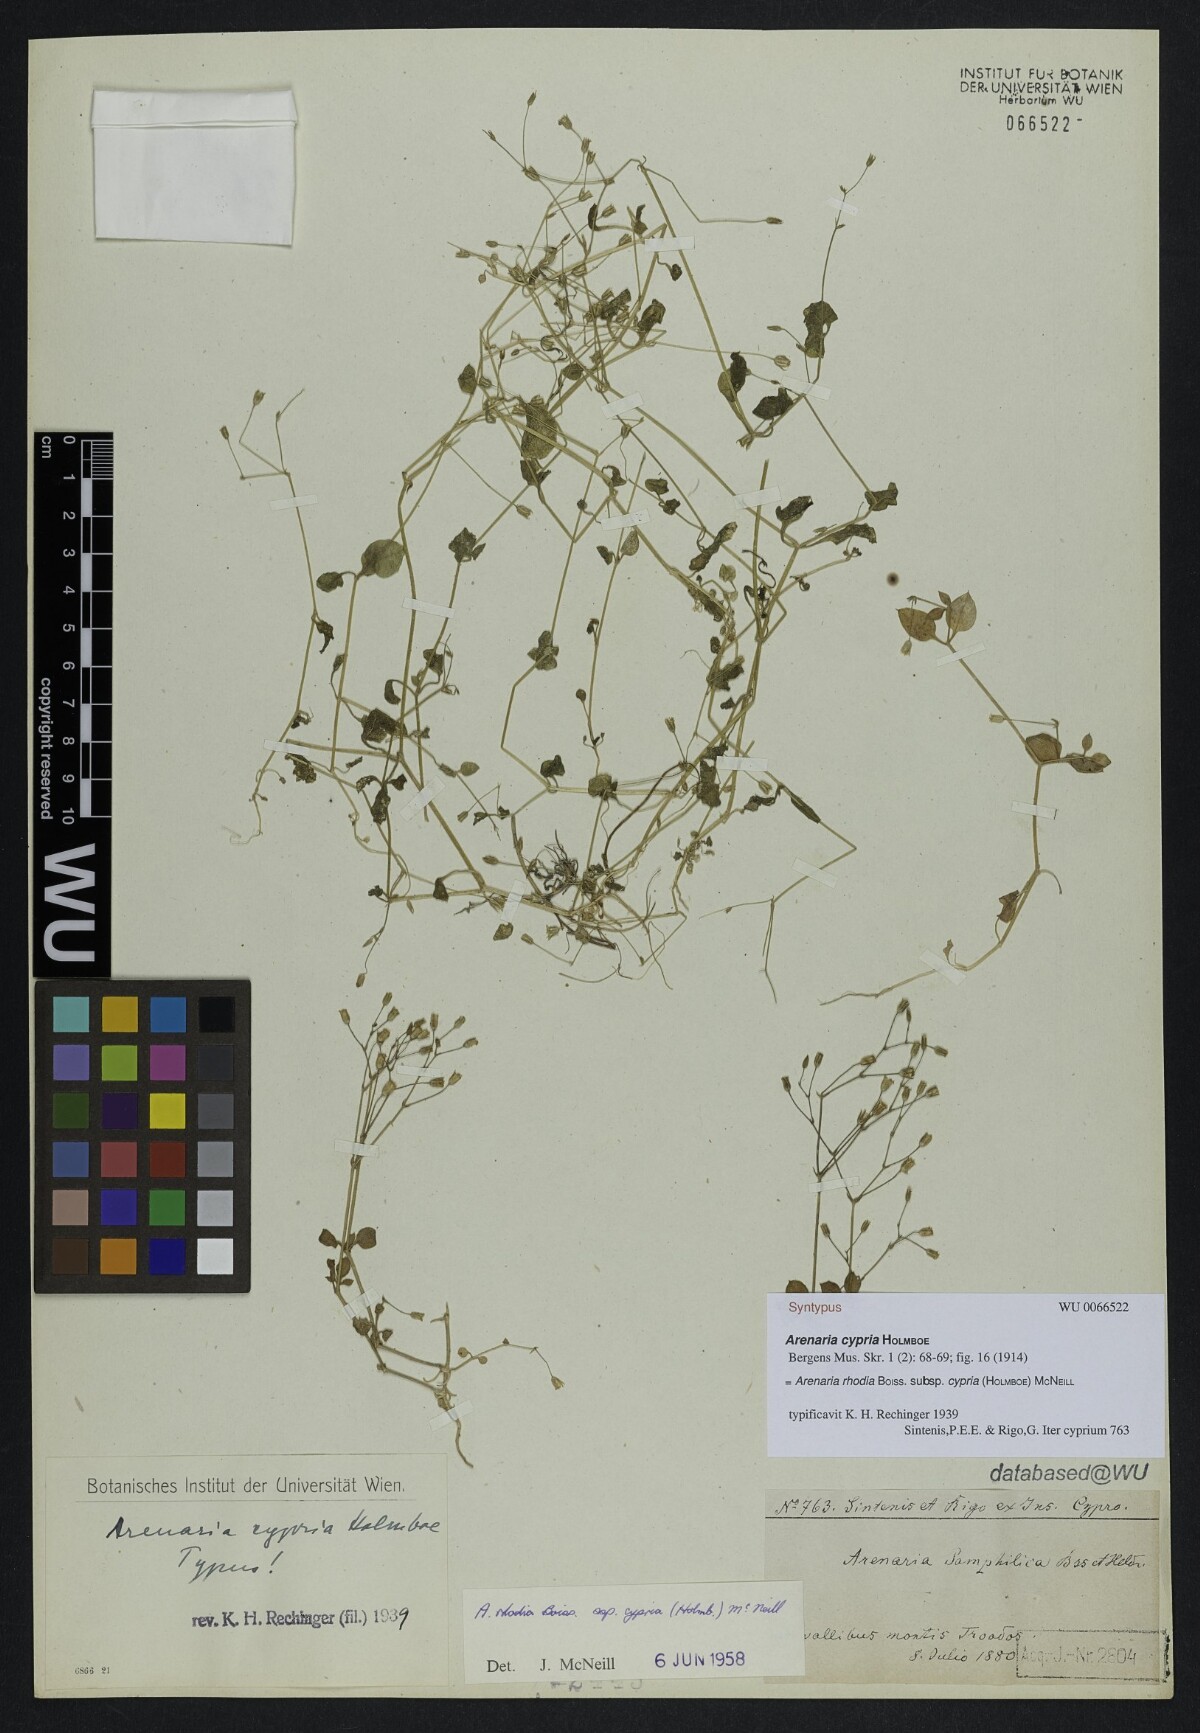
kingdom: Plantae
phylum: Tracheophyta
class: Magnoliopsida
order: Caryophyllales
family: Caryophyllaceae
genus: Arenaria
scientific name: Arenaria rhodia
